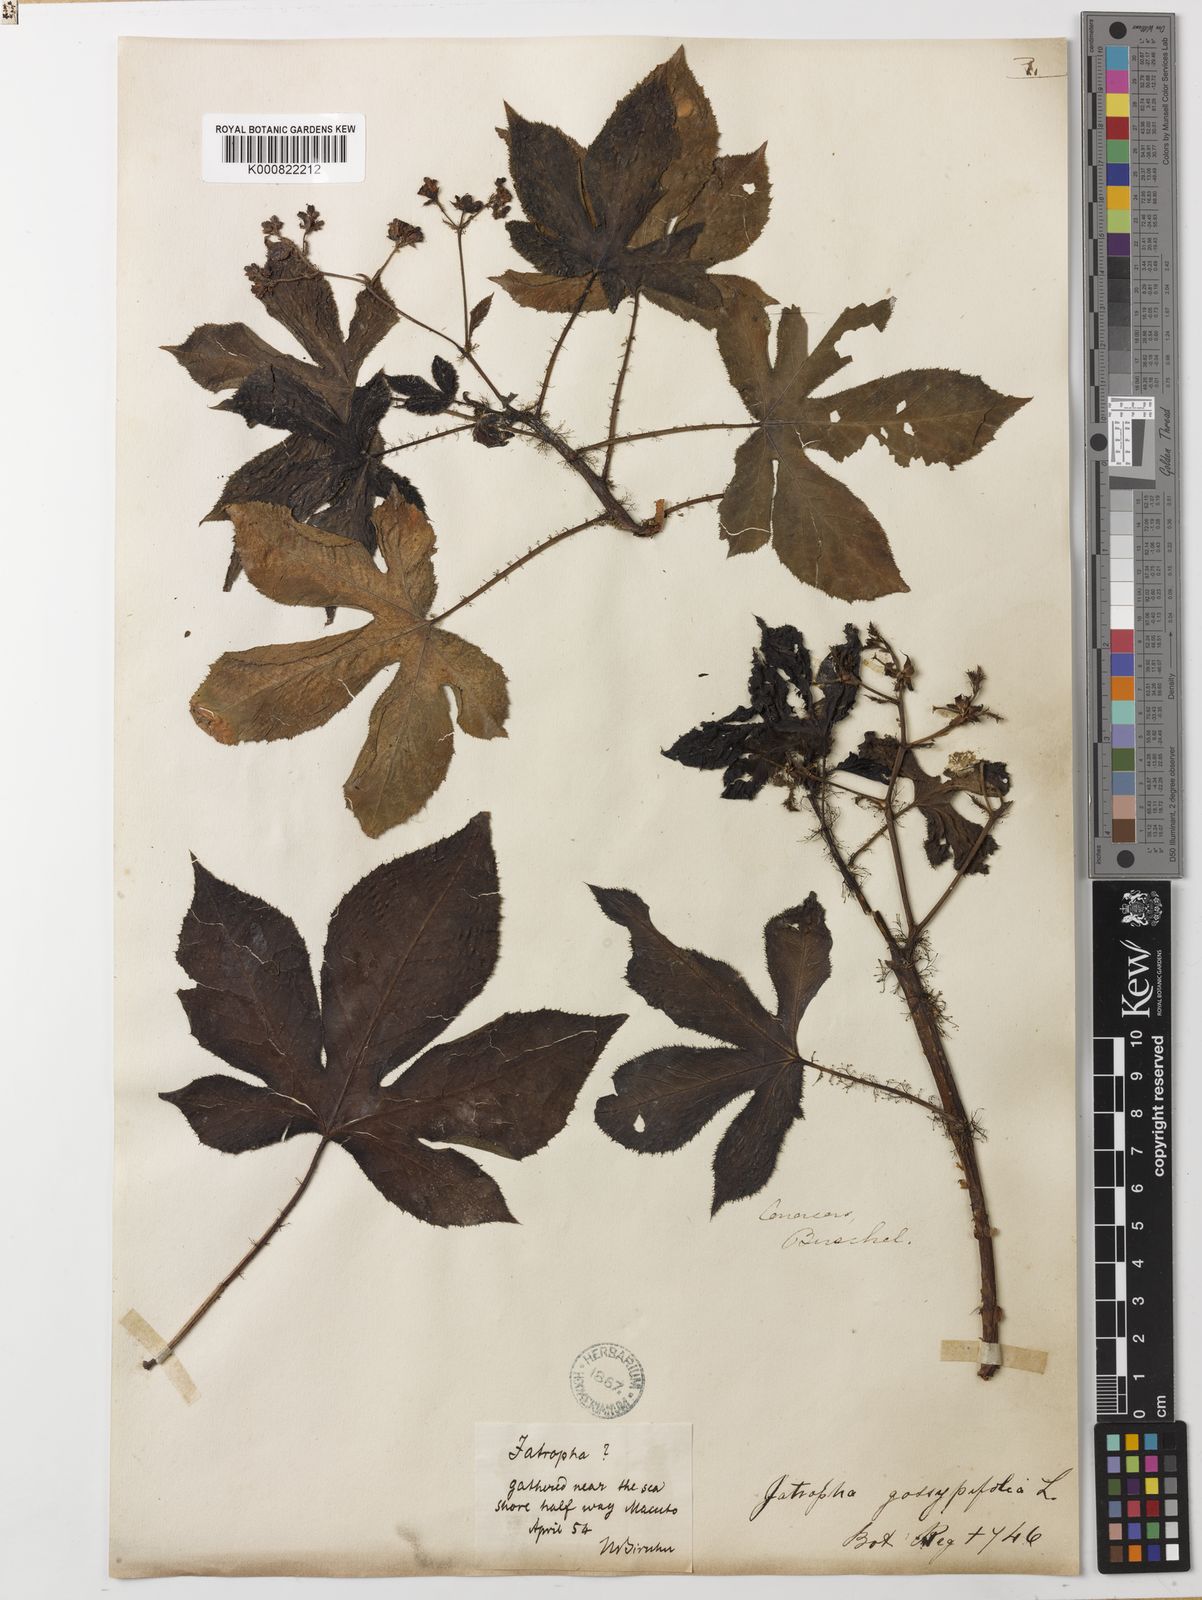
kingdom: Plantae
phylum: Tracheophyta
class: Magnoliopsida
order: Malpighiales
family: Euphorbiaceae
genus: Jatropha
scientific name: Jatropha
